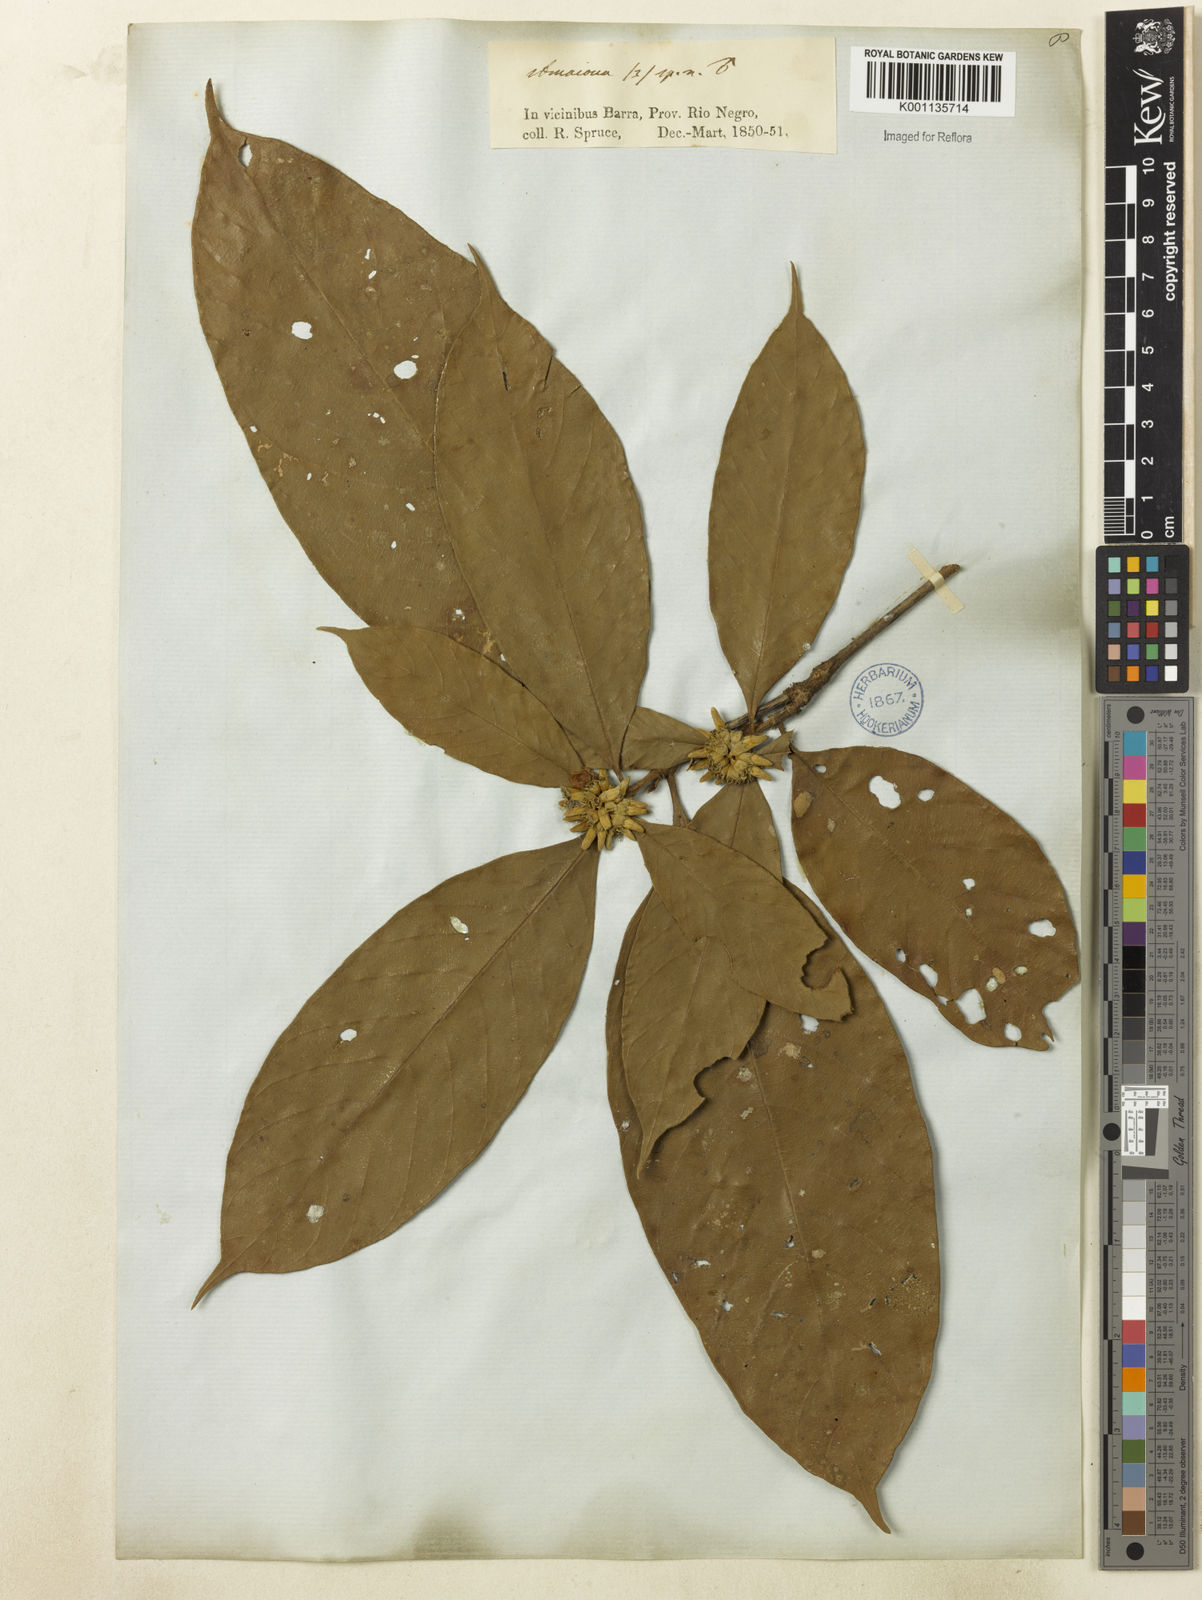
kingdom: Plantae
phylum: Tracheophyta
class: Magnoliopsida
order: Gentianales
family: Rubiaceae
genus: Amaioua
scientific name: Amaioua
